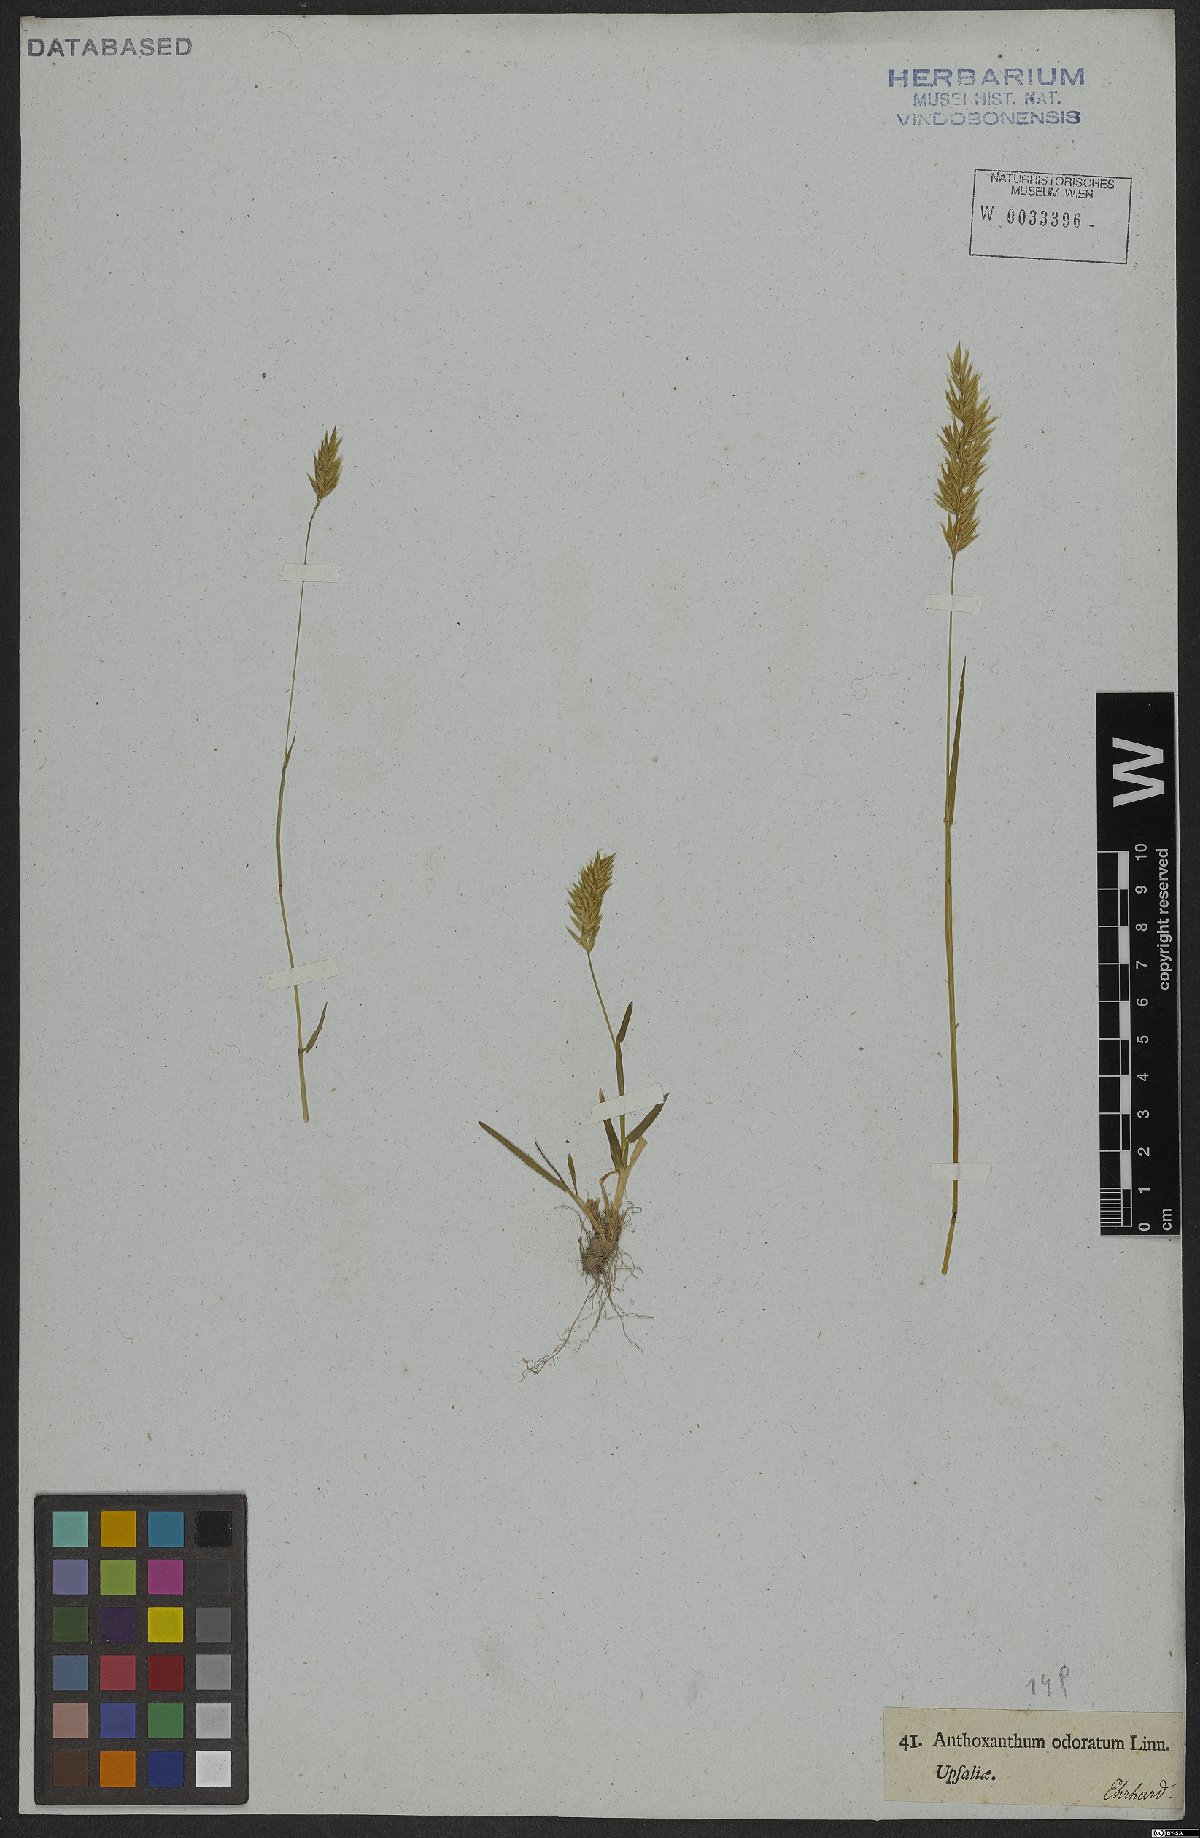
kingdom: Plantae
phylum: Tracheophyta
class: Liliopsida
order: Poales
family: Poaceae
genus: Anthoxanthum
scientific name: Anthoxanthum odoratum
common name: Sweet vernalgrass
